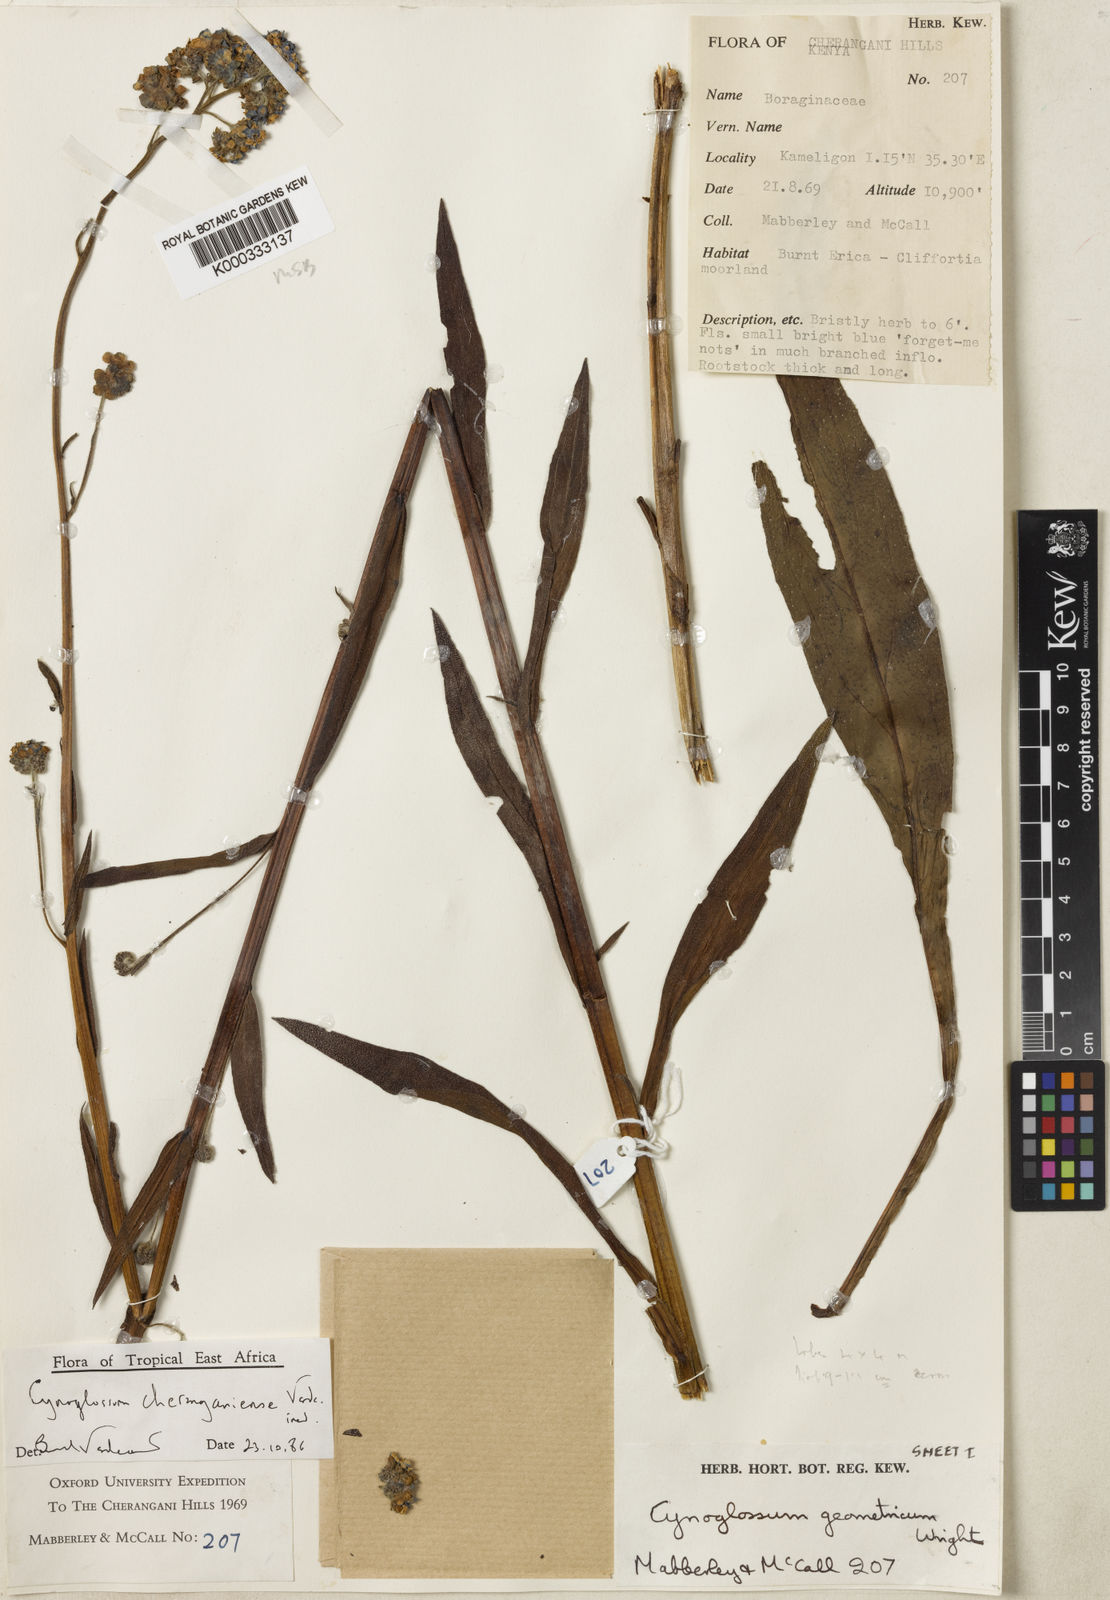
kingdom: Plantae
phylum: Tracheophyta
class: Magnoliopsida
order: Boraginales
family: Boraginaceae
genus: Cynoglossum
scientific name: Cynoglossum
